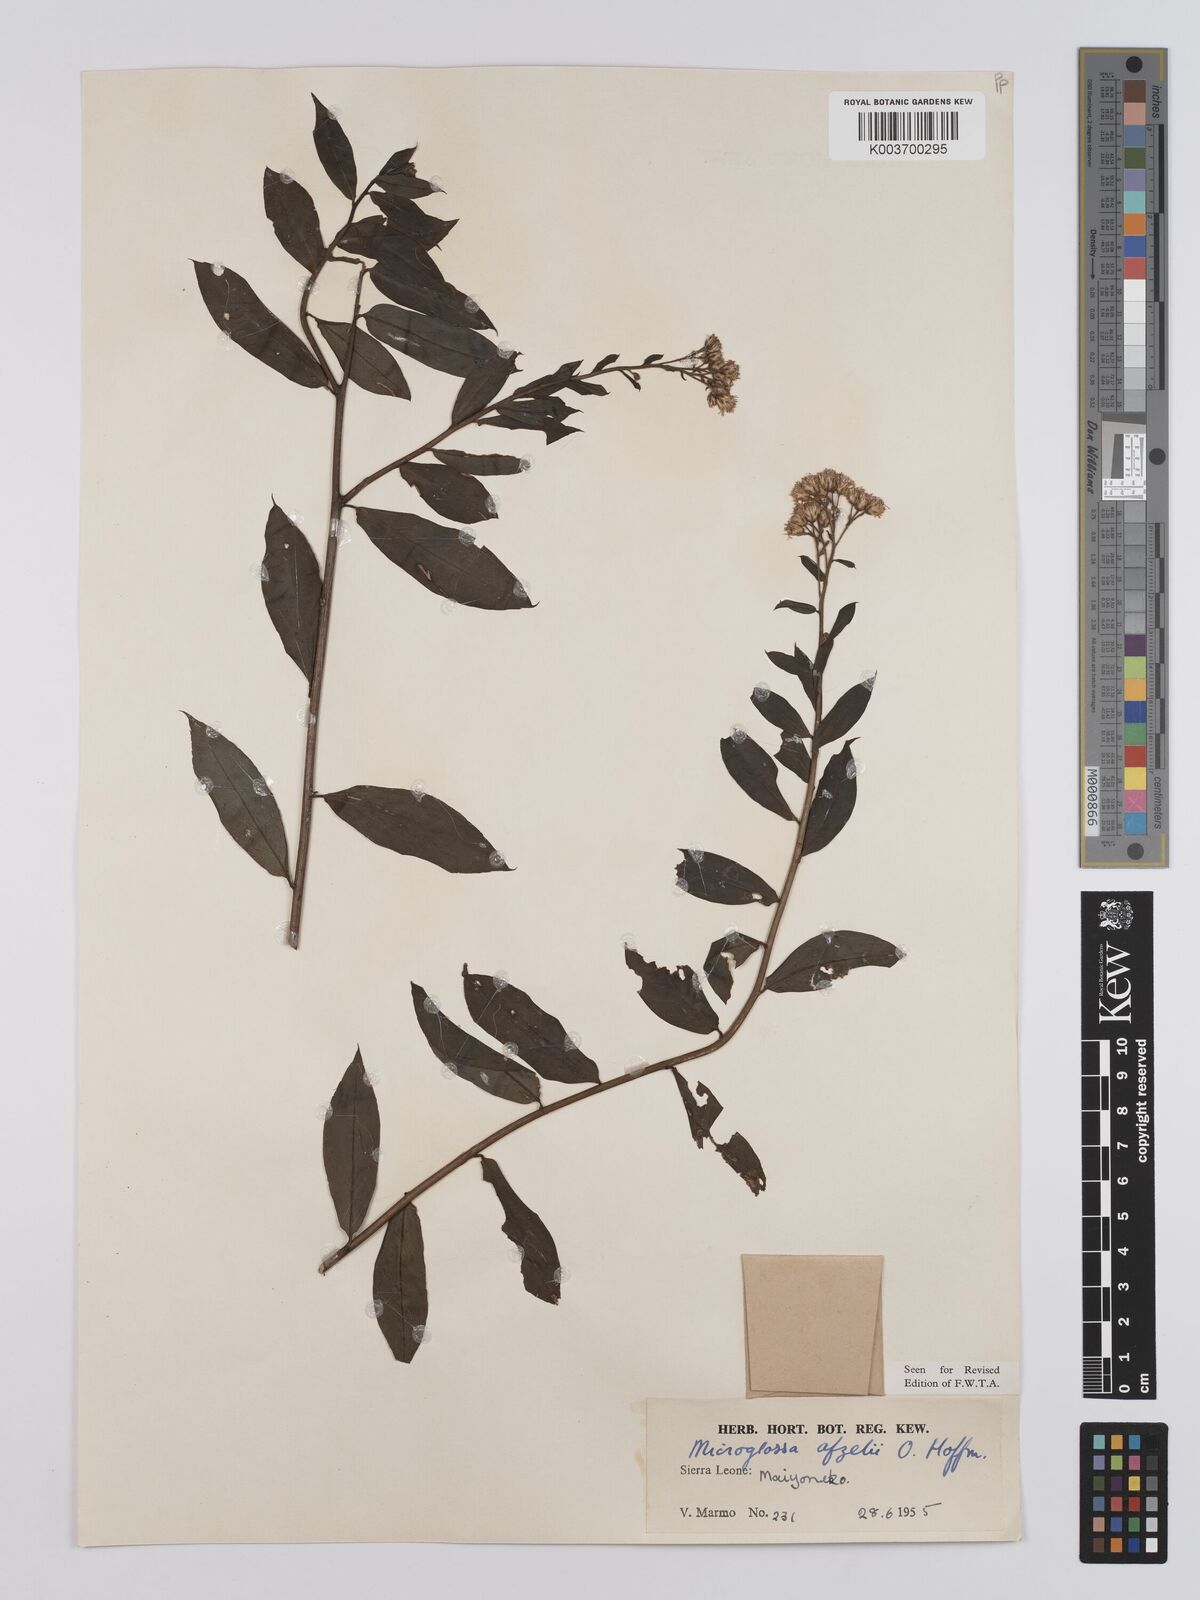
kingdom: Plantae
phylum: Tracheophyta
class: Magnoliopsida
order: Asterales
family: Asteraceae
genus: Microglossa
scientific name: Microglossa afzelii
